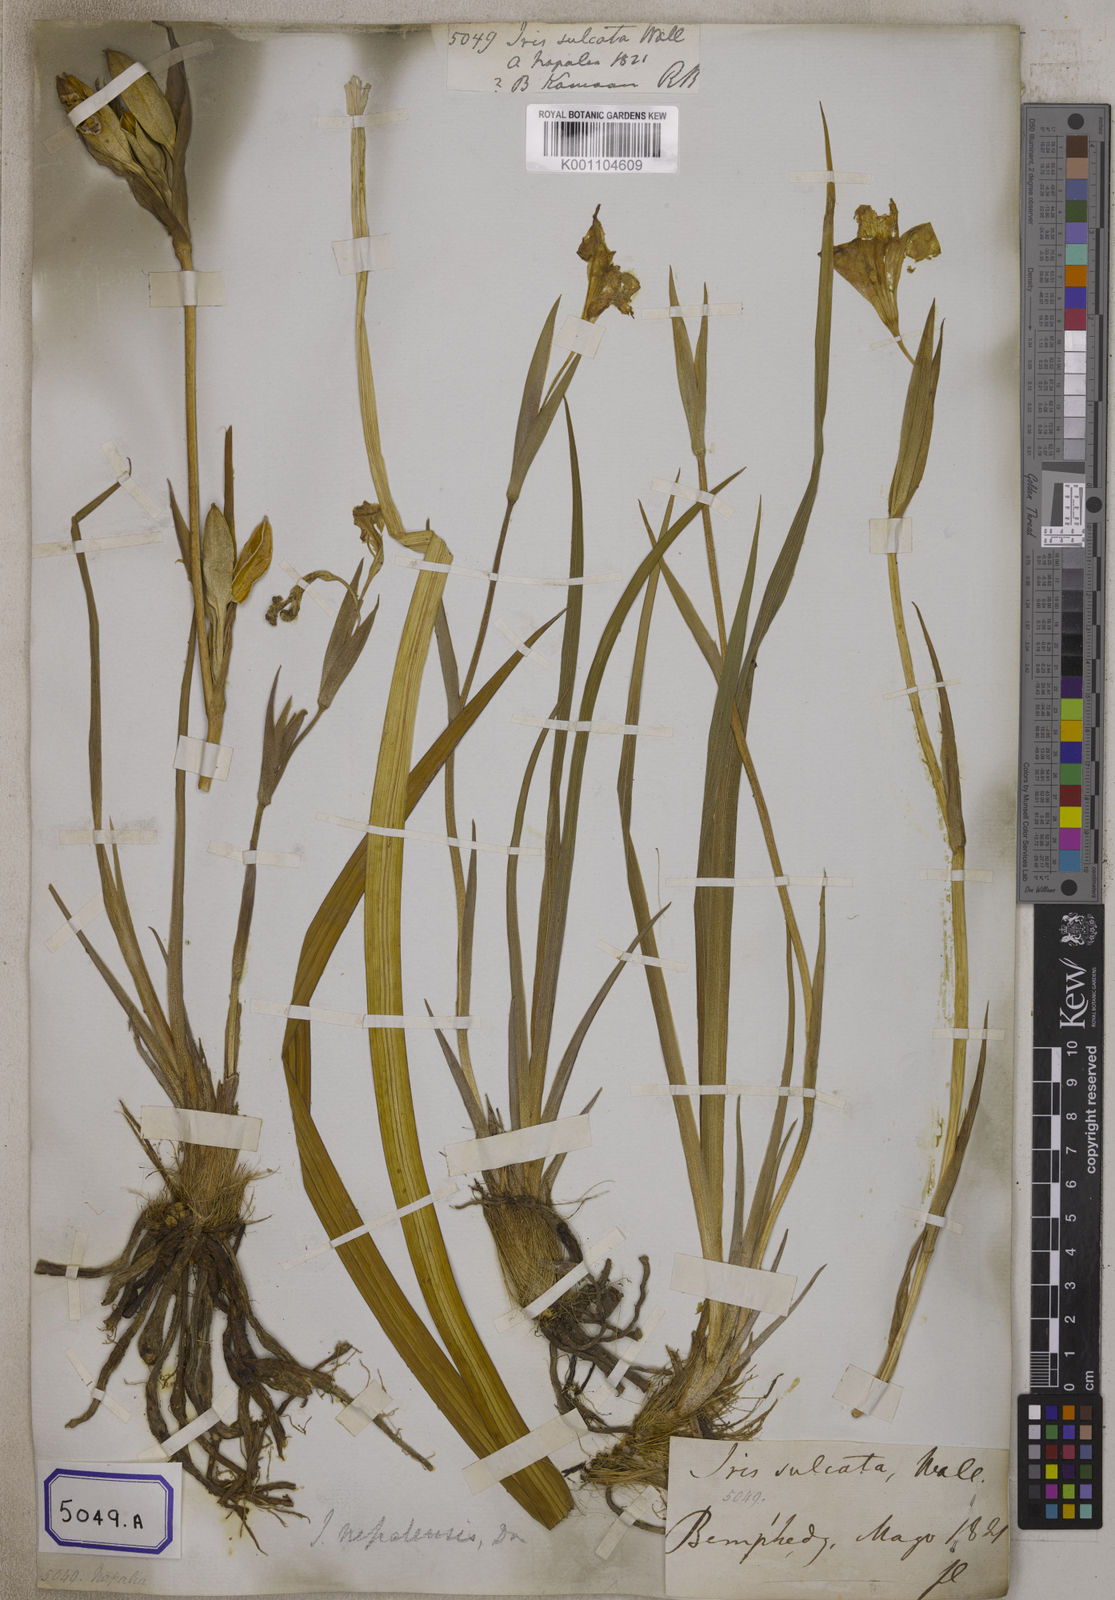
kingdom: Plantae
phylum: Tracheophyta
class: Liliopsida
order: Asparagales
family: Iridaceae
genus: Iris
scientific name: Iris decora
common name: Nepal iris
